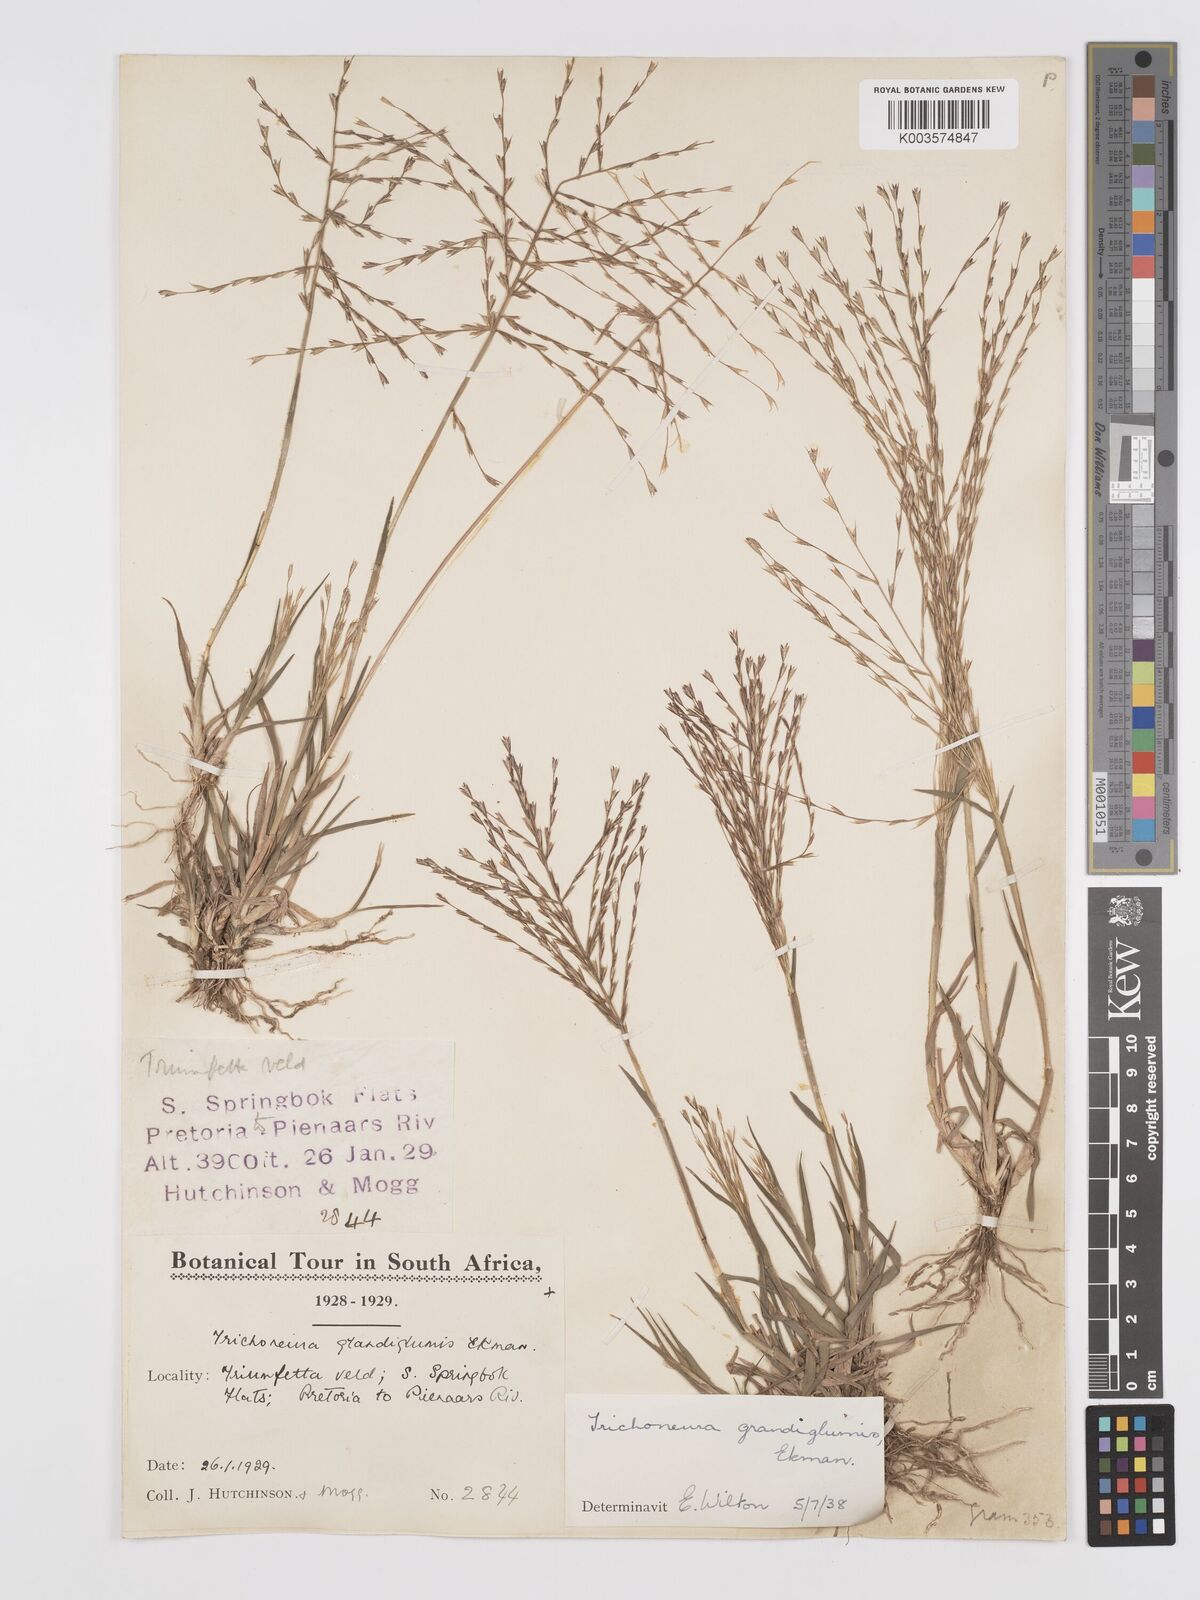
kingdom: Plantae
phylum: Tracheophyta
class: Liliopsida
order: Poales
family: Poaceae
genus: Trichoneura
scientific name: Trichoneura grandiglumis
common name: Rolling grass
